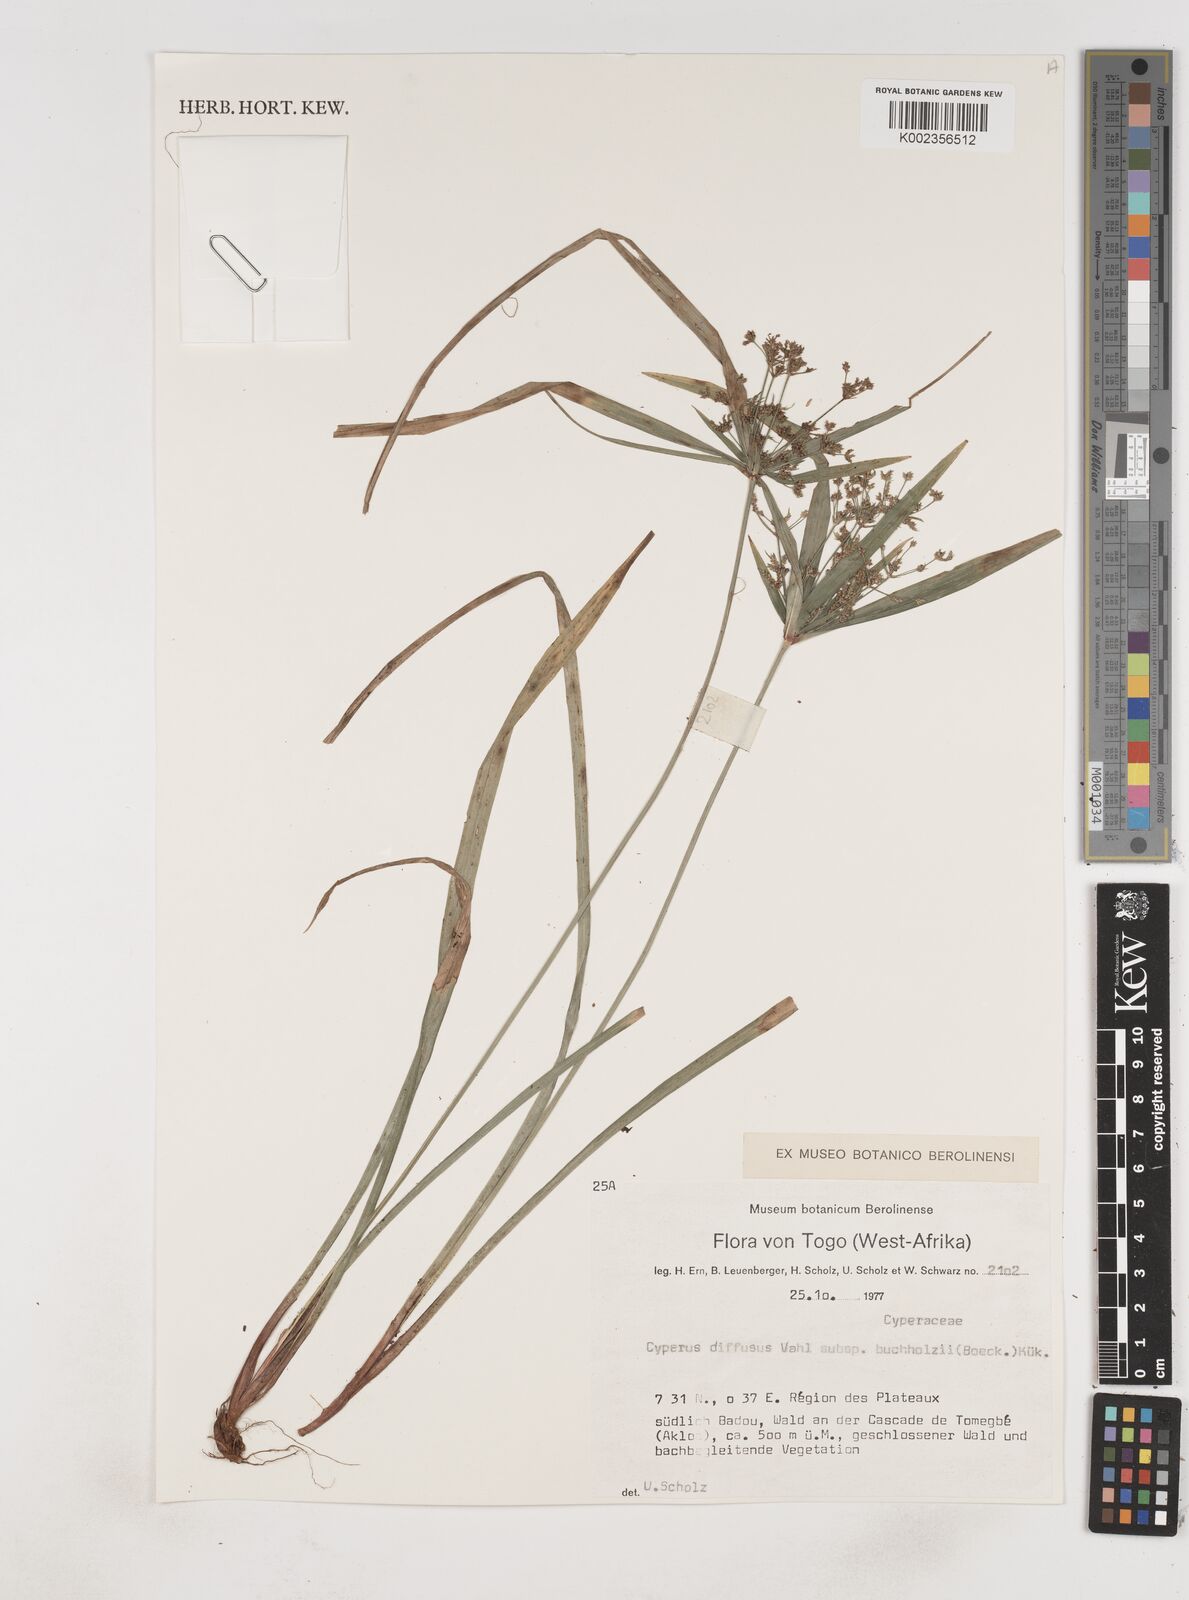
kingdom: Plantae
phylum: Tracheophyta
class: Liliopsida
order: Poales
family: Cyperaceae
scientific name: Cyperaceae
